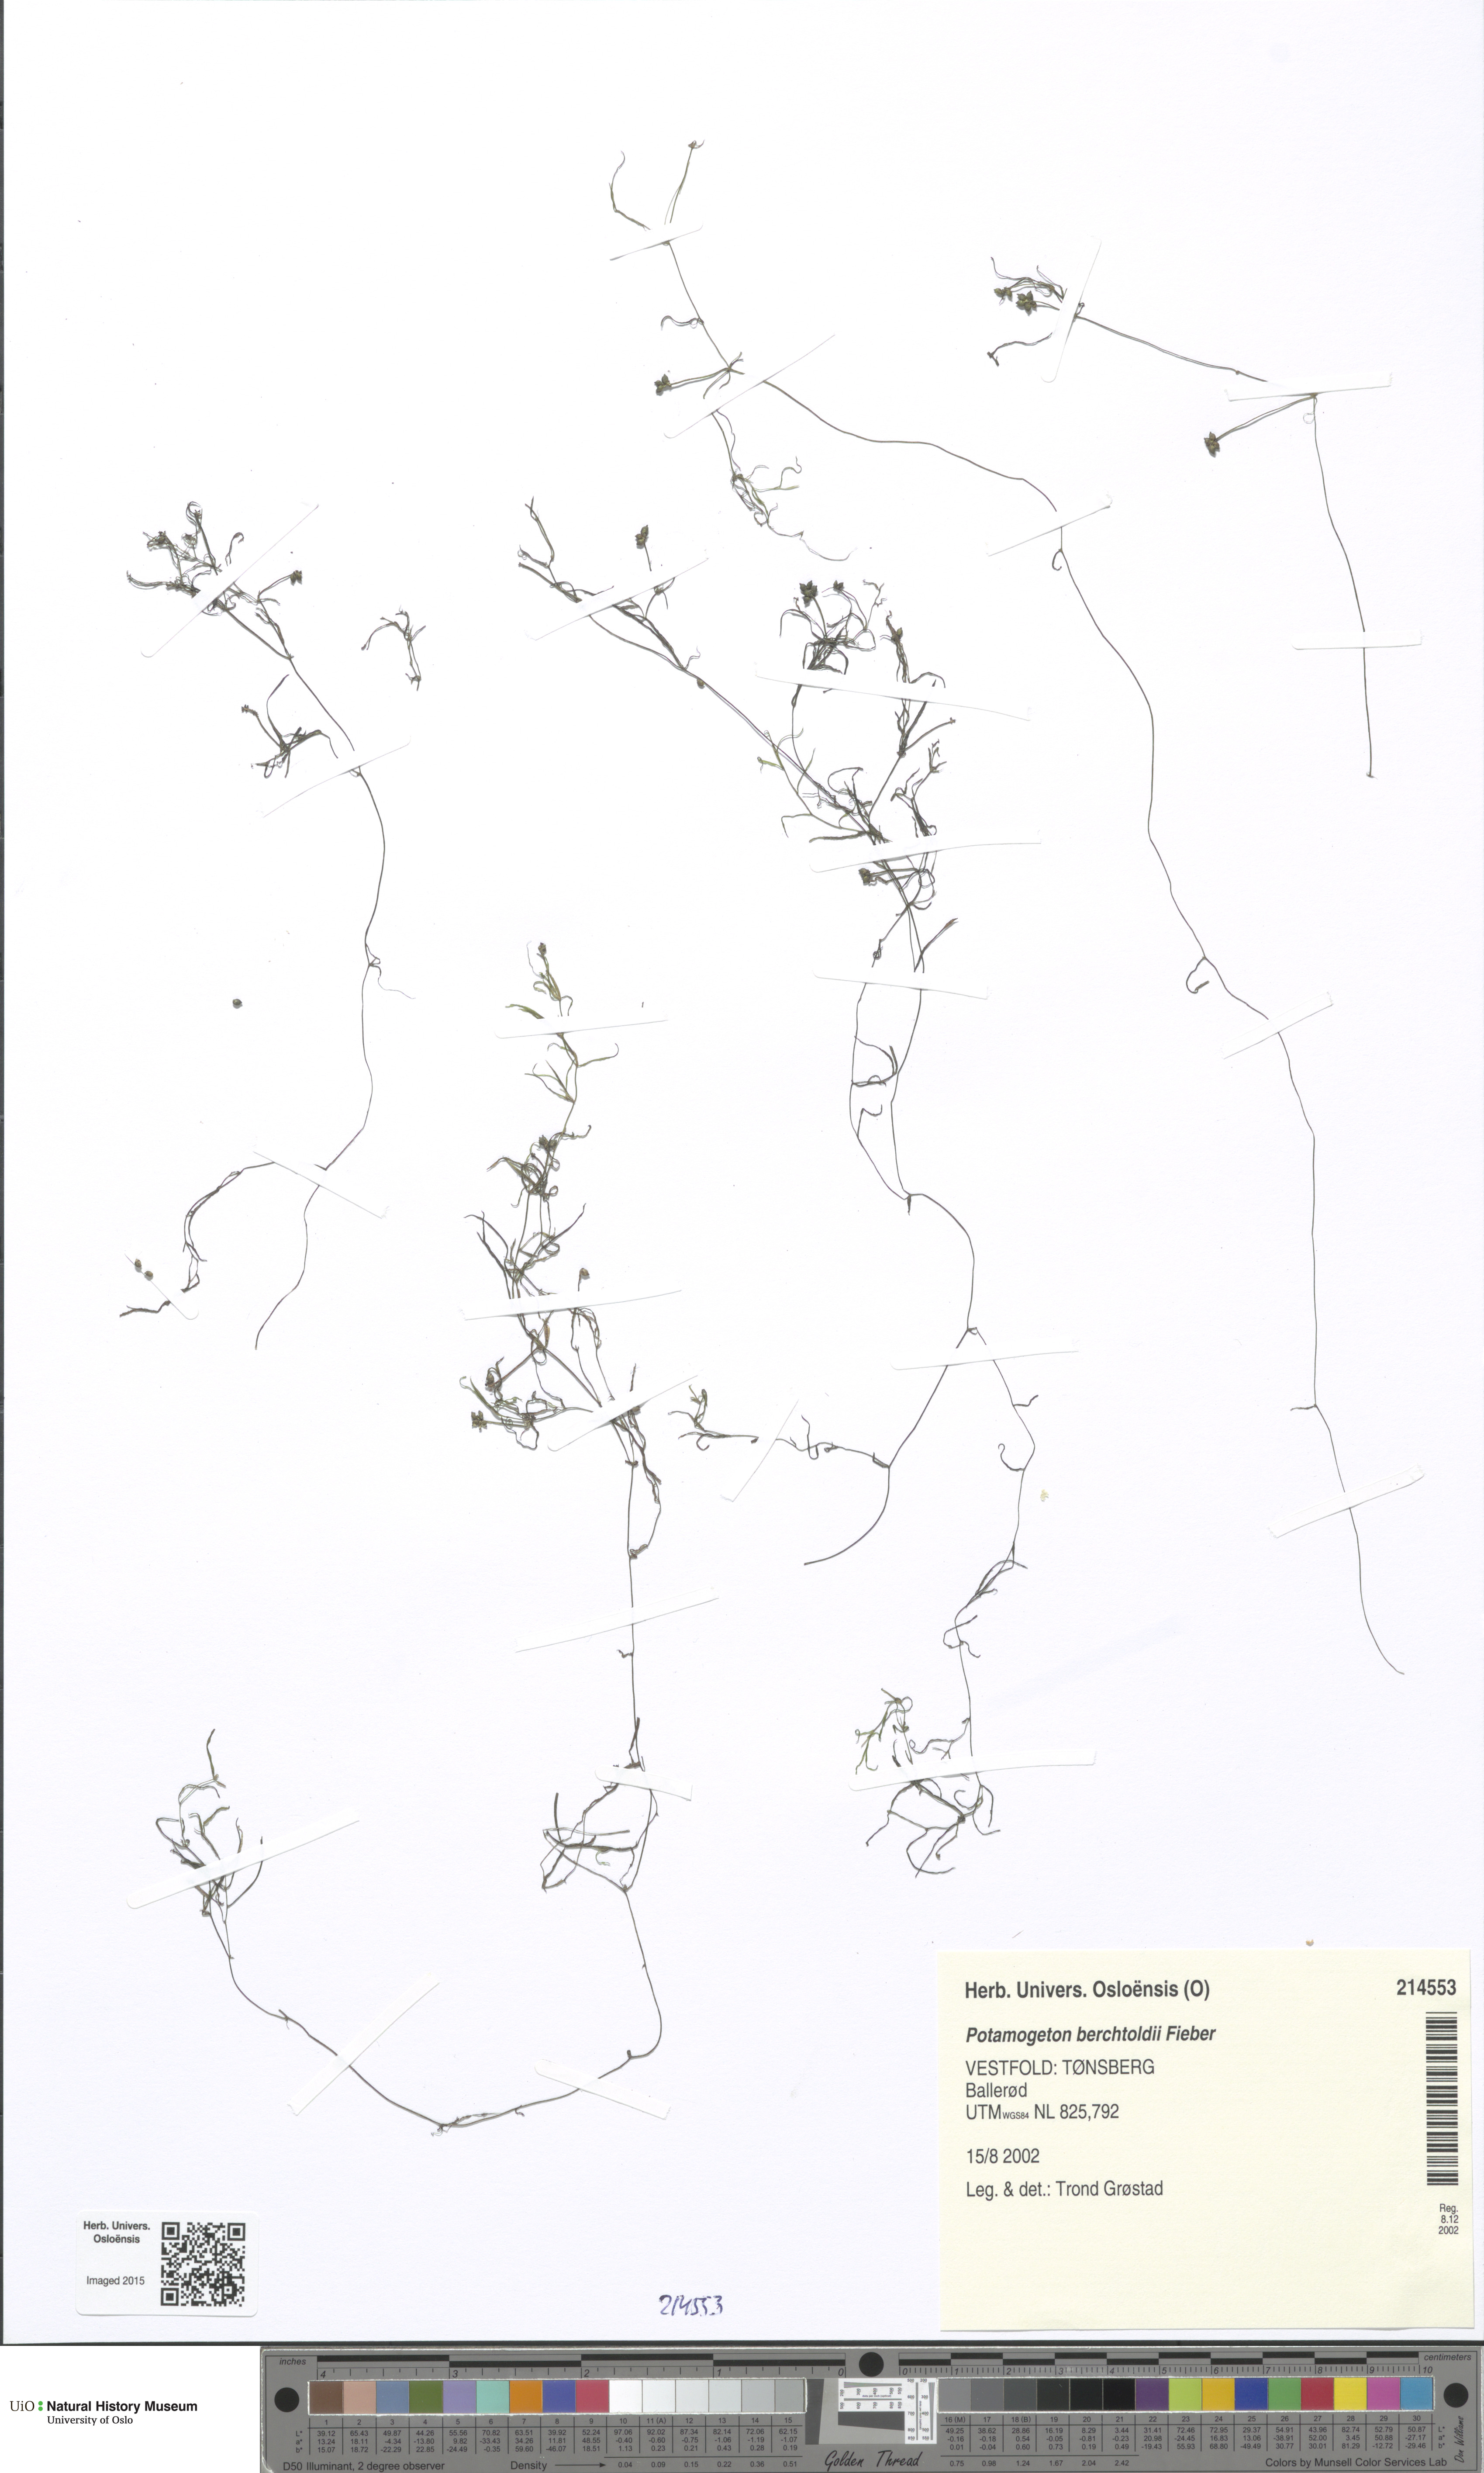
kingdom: Plantae
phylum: Tracheophyta
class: Liliopsida
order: Alismatales
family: Potamogetonaceae
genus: Potamogeton
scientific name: Potamogeton berchtoldii
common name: Small pondweed
